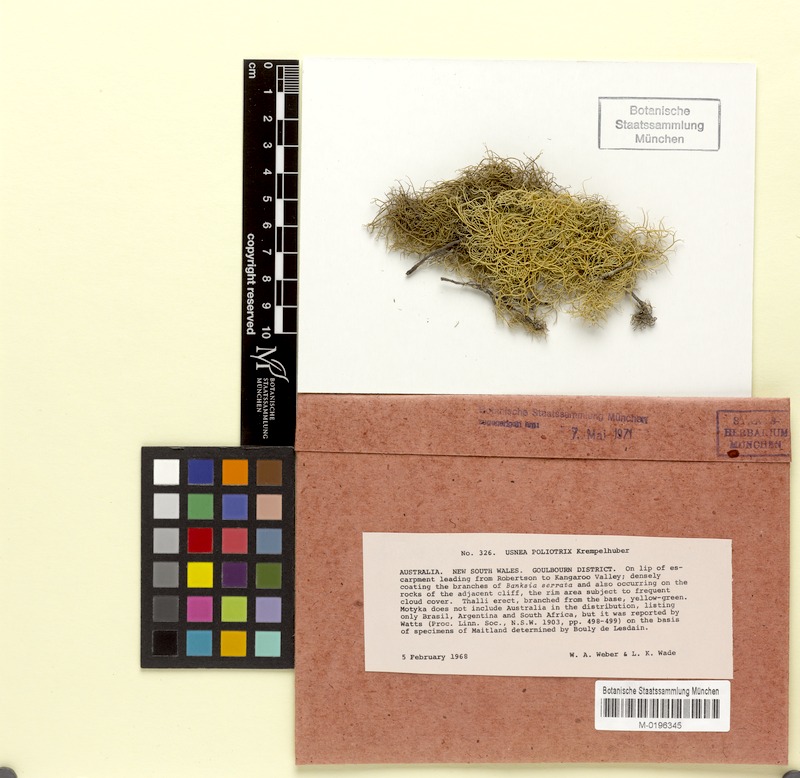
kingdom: Fungi
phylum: Ascomycota
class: Lecanoromycetes
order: Lecanorales
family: Parmeliaceae
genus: Usnea
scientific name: Usnea poliotrix
